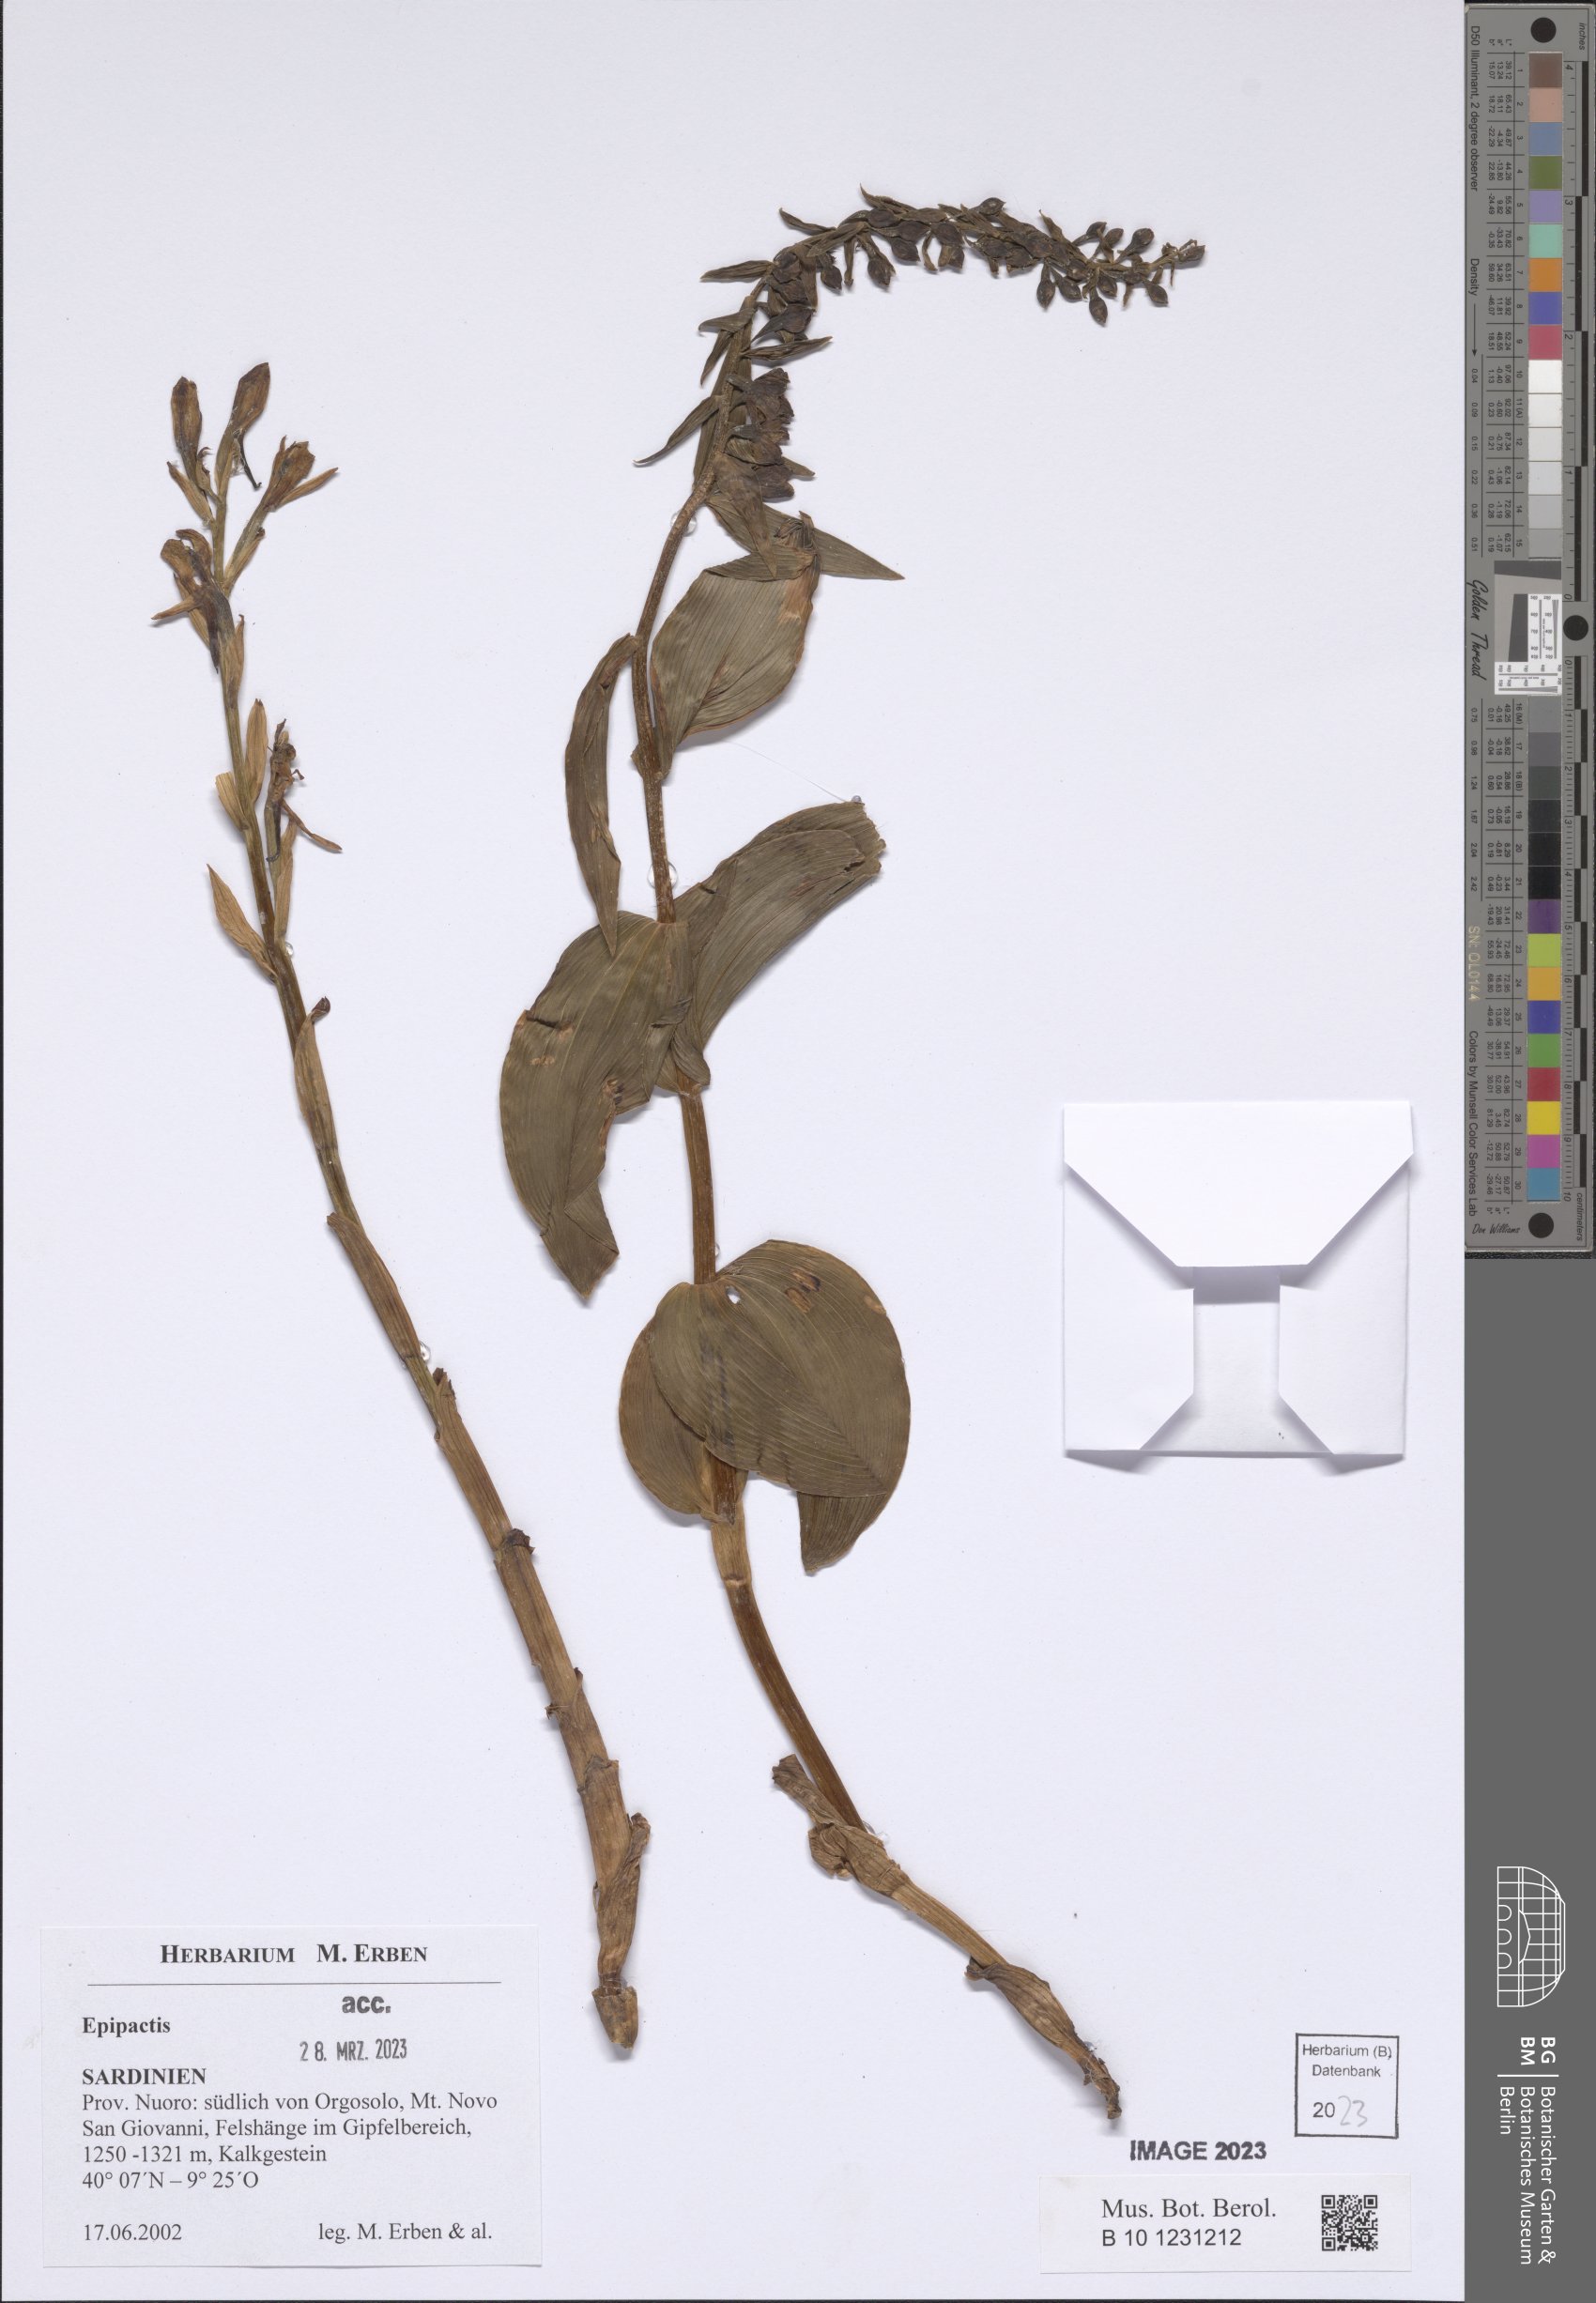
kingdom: Plantae
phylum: Tracheophyta
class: Liliopsida
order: Asparagales
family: Orchidaceae
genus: Epipactis
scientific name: Epipactis
